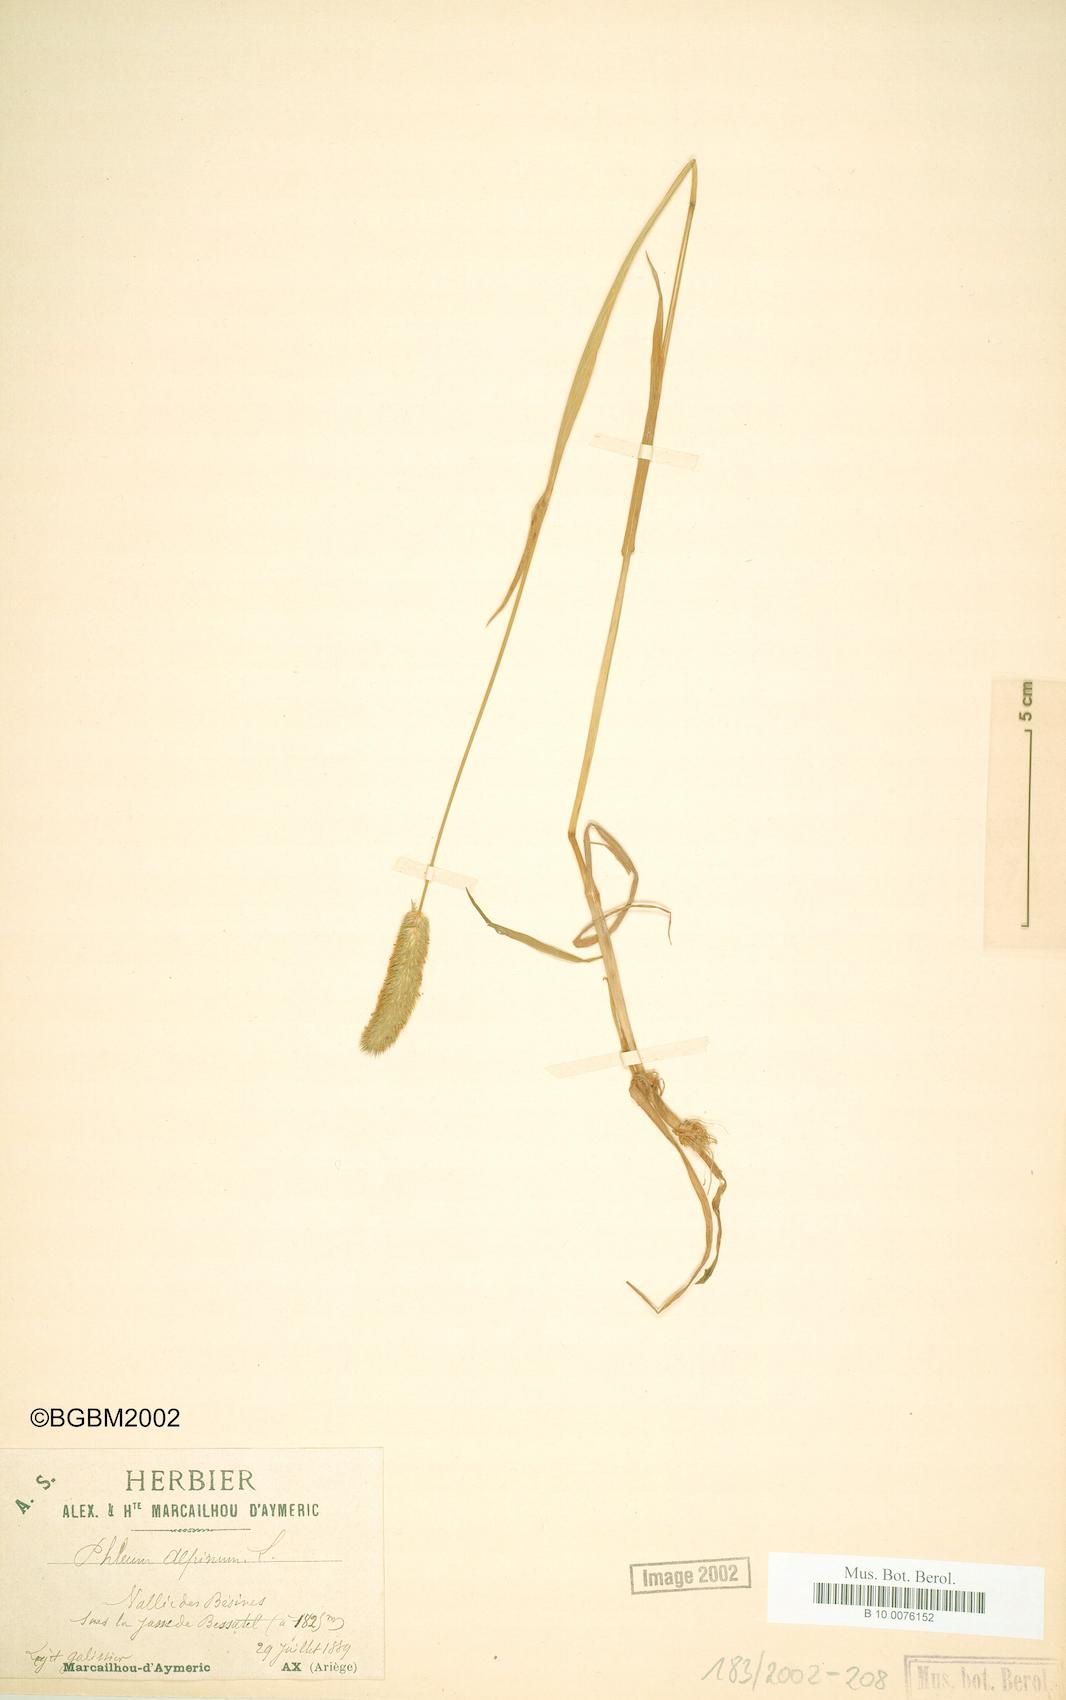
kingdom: Plantae
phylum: Tracheophyta
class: Liliopsida
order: Poales
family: Poaceae
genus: Phleum
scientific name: Phleum alpinum
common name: Alpine cat's-tail
